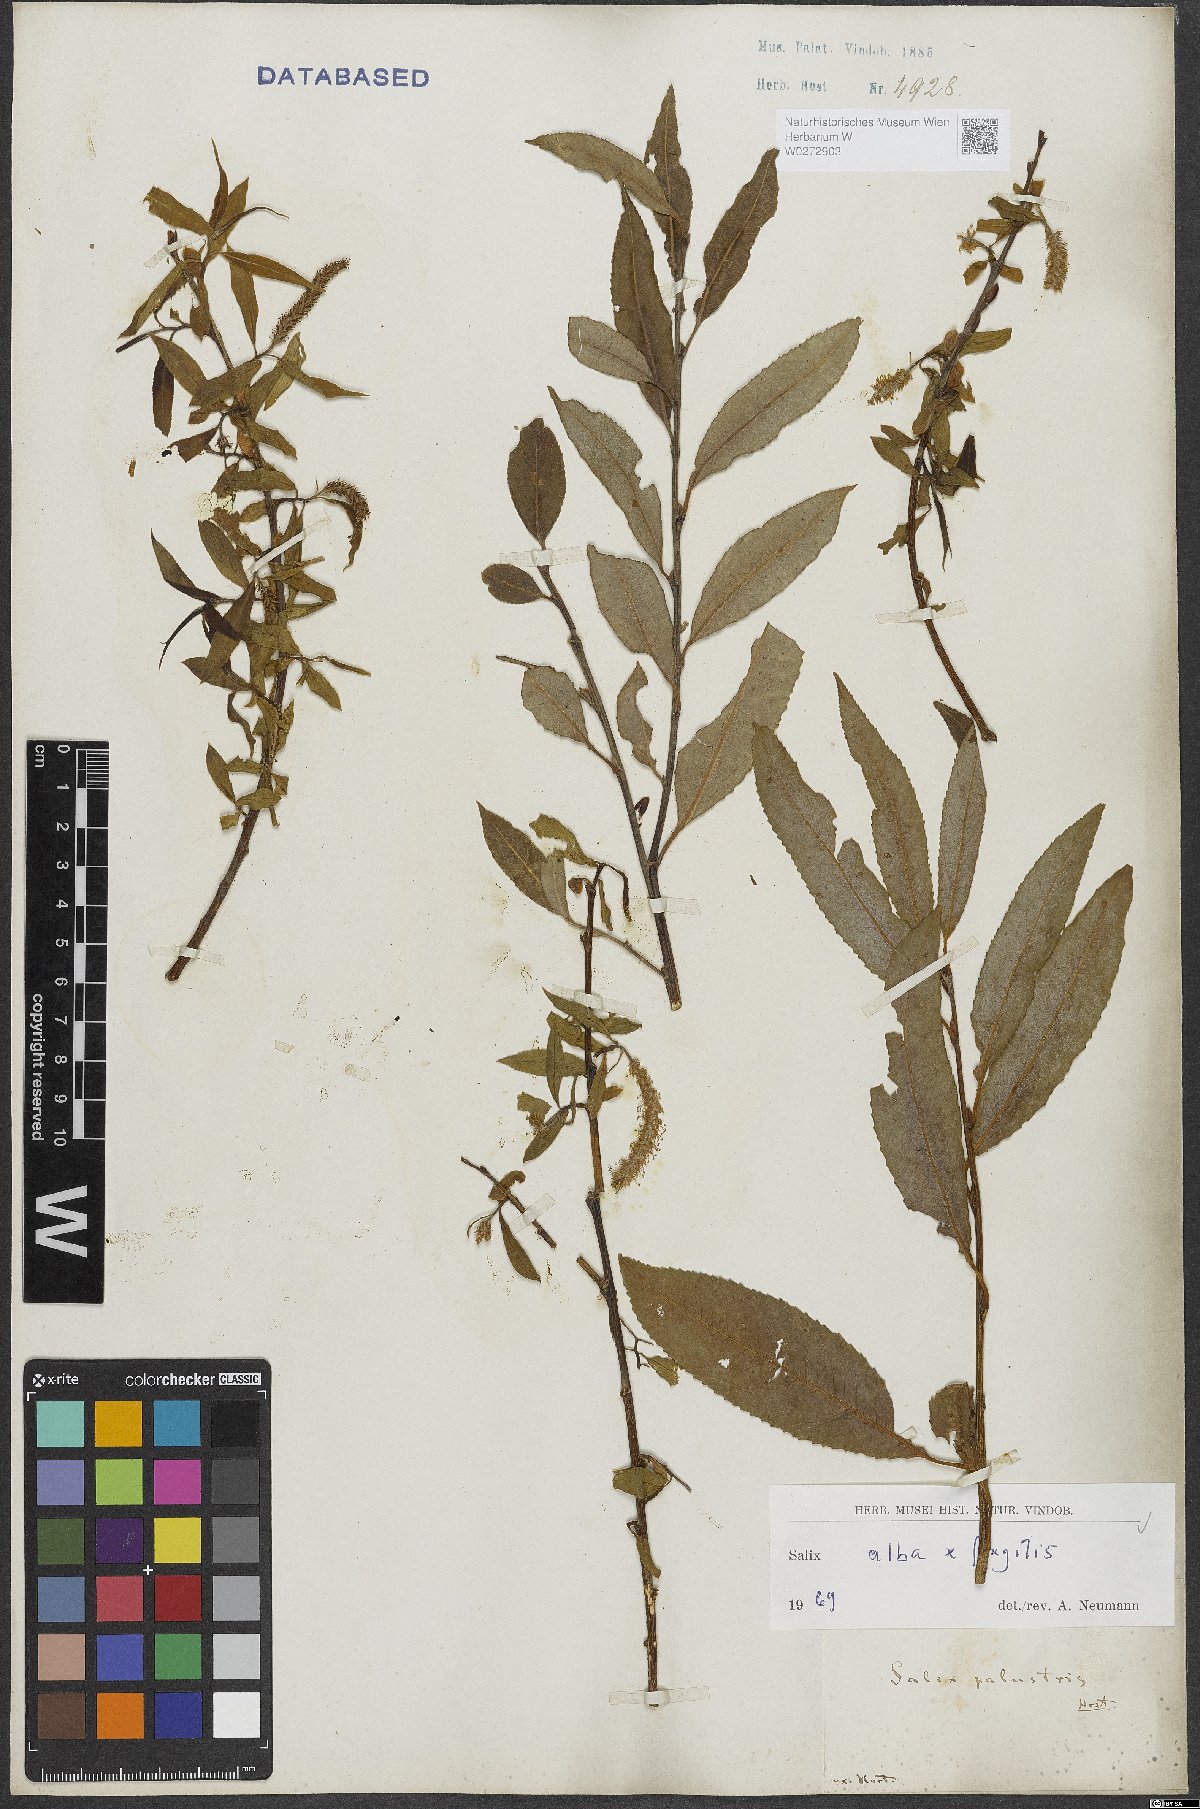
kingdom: Plantae
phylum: Tracheophyta
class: Magnoliopsida
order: Malpighiales
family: Salicaceae
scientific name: Salicaceae
